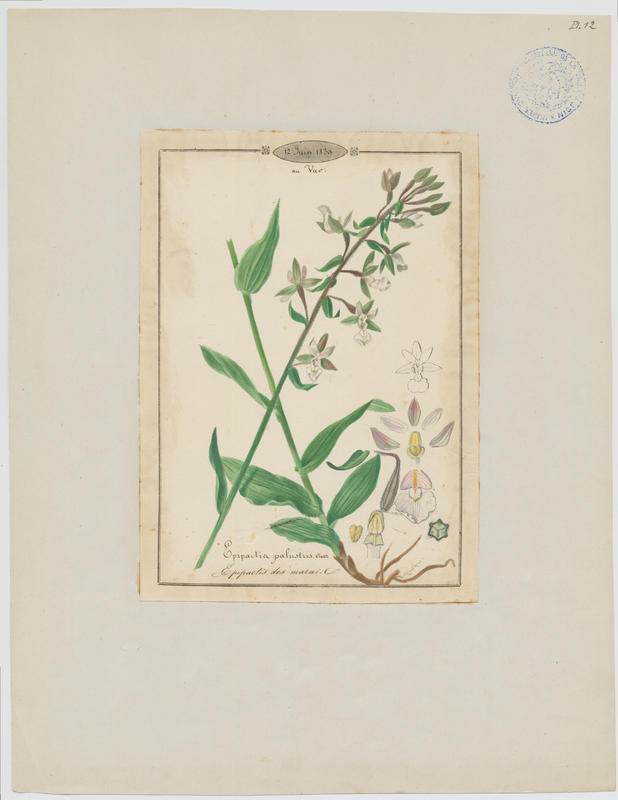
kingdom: Plantae
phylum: Tracheophyta
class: Liliopsida
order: Asparagales
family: Orchidaceae
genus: Epipactis
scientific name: Epipactis palustris
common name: Marsh helleborine
